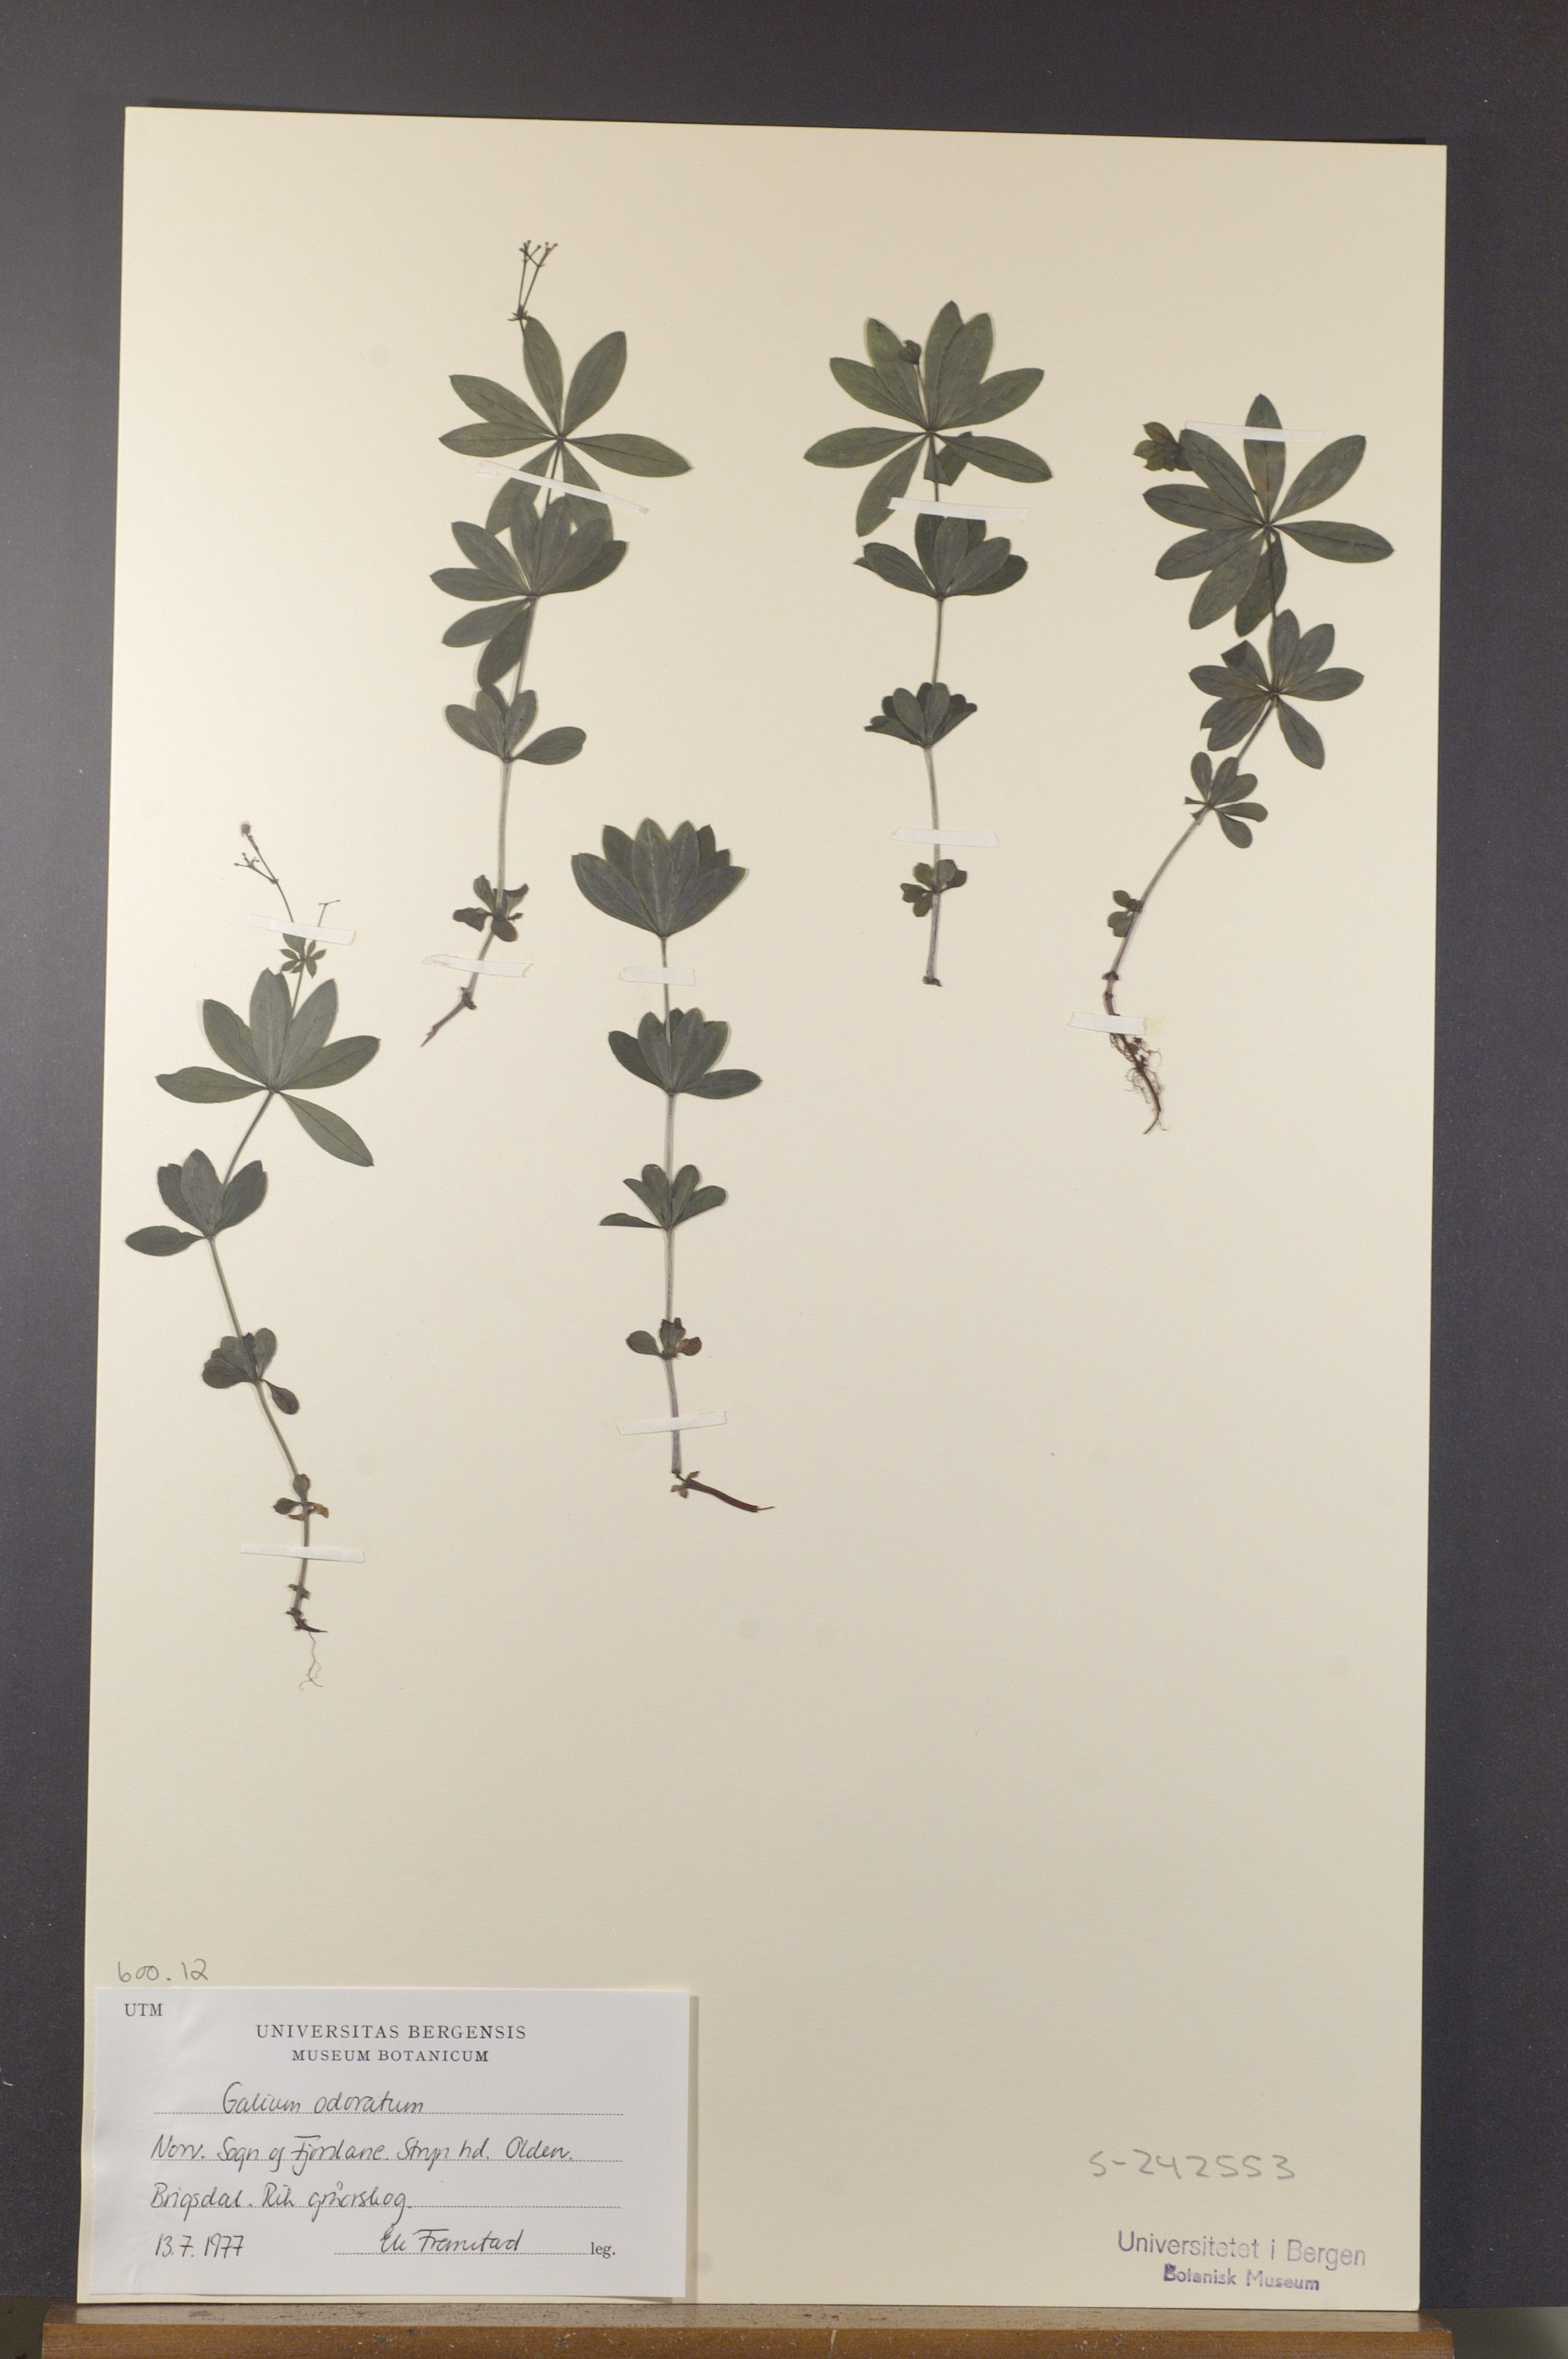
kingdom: Plantae
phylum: Tracheophyta
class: Magnoliopsida
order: Gentianales
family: Rubiaceae
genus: Galium
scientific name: Galium odoratum
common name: Sweet woodruff
